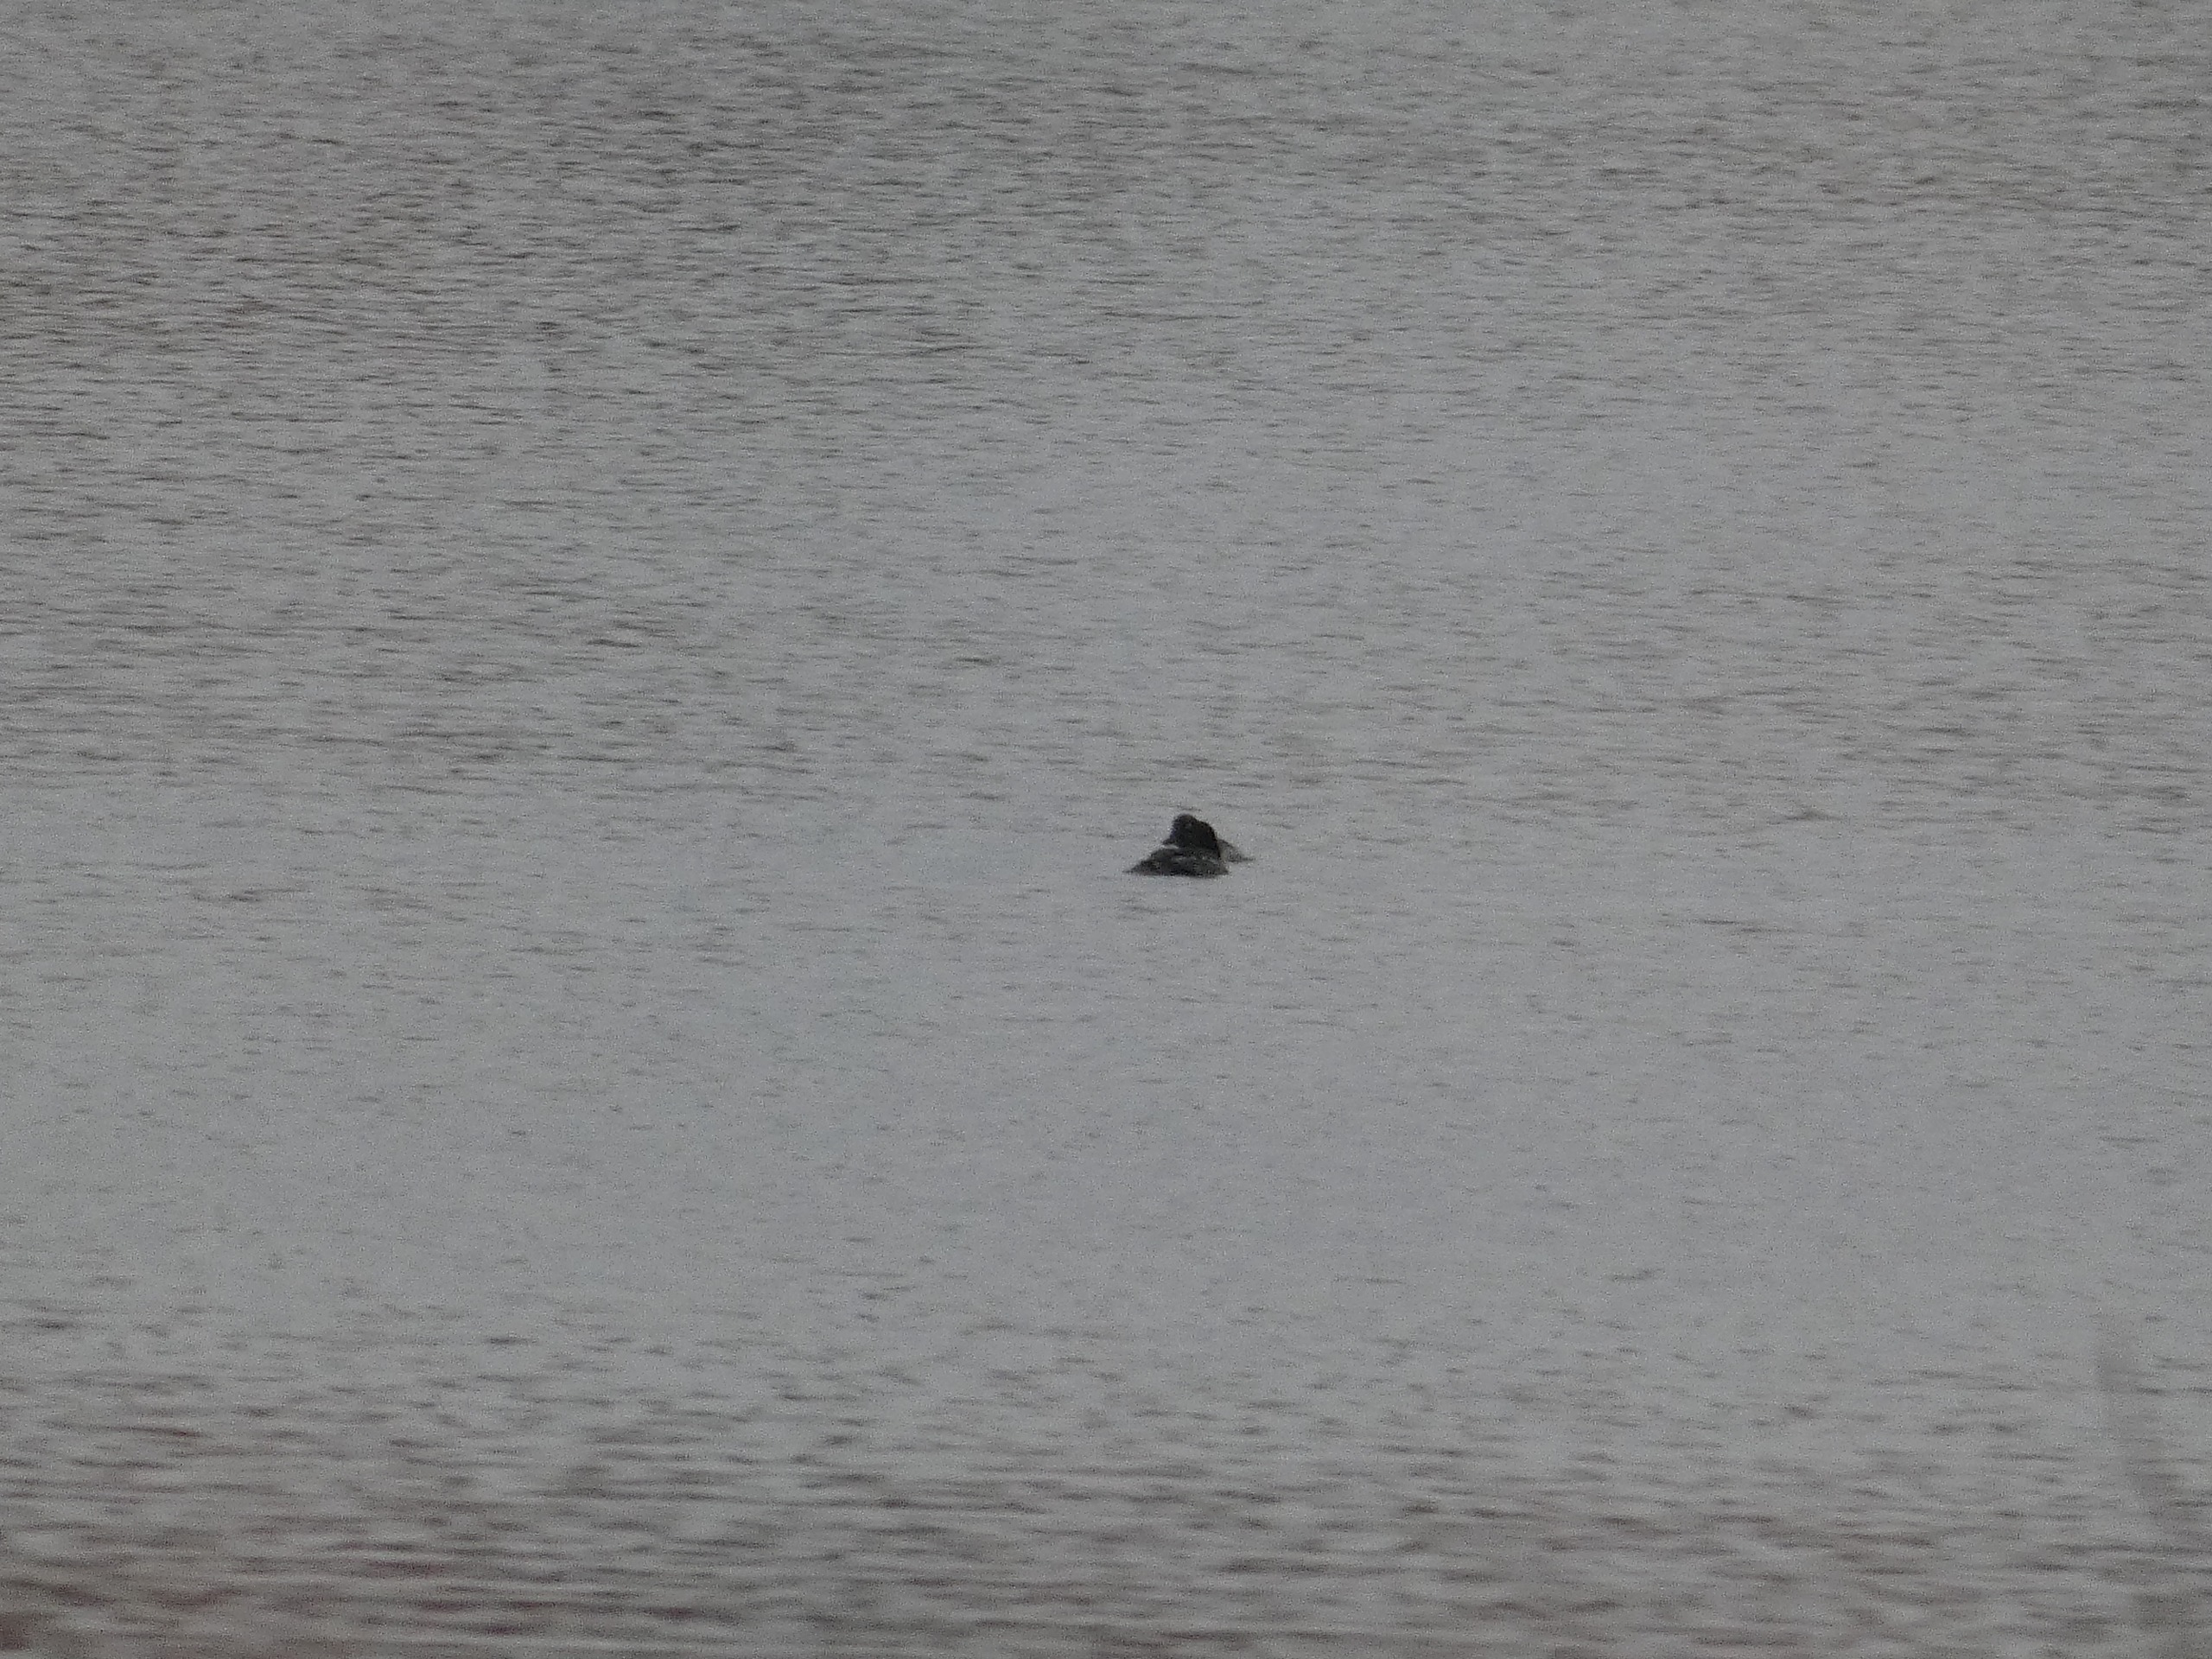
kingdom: Animalia
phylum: Chordata
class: Aves
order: Anseriformes
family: Anatidae
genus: Bucephala
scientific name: Bucephala clangula
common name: Hvinand
